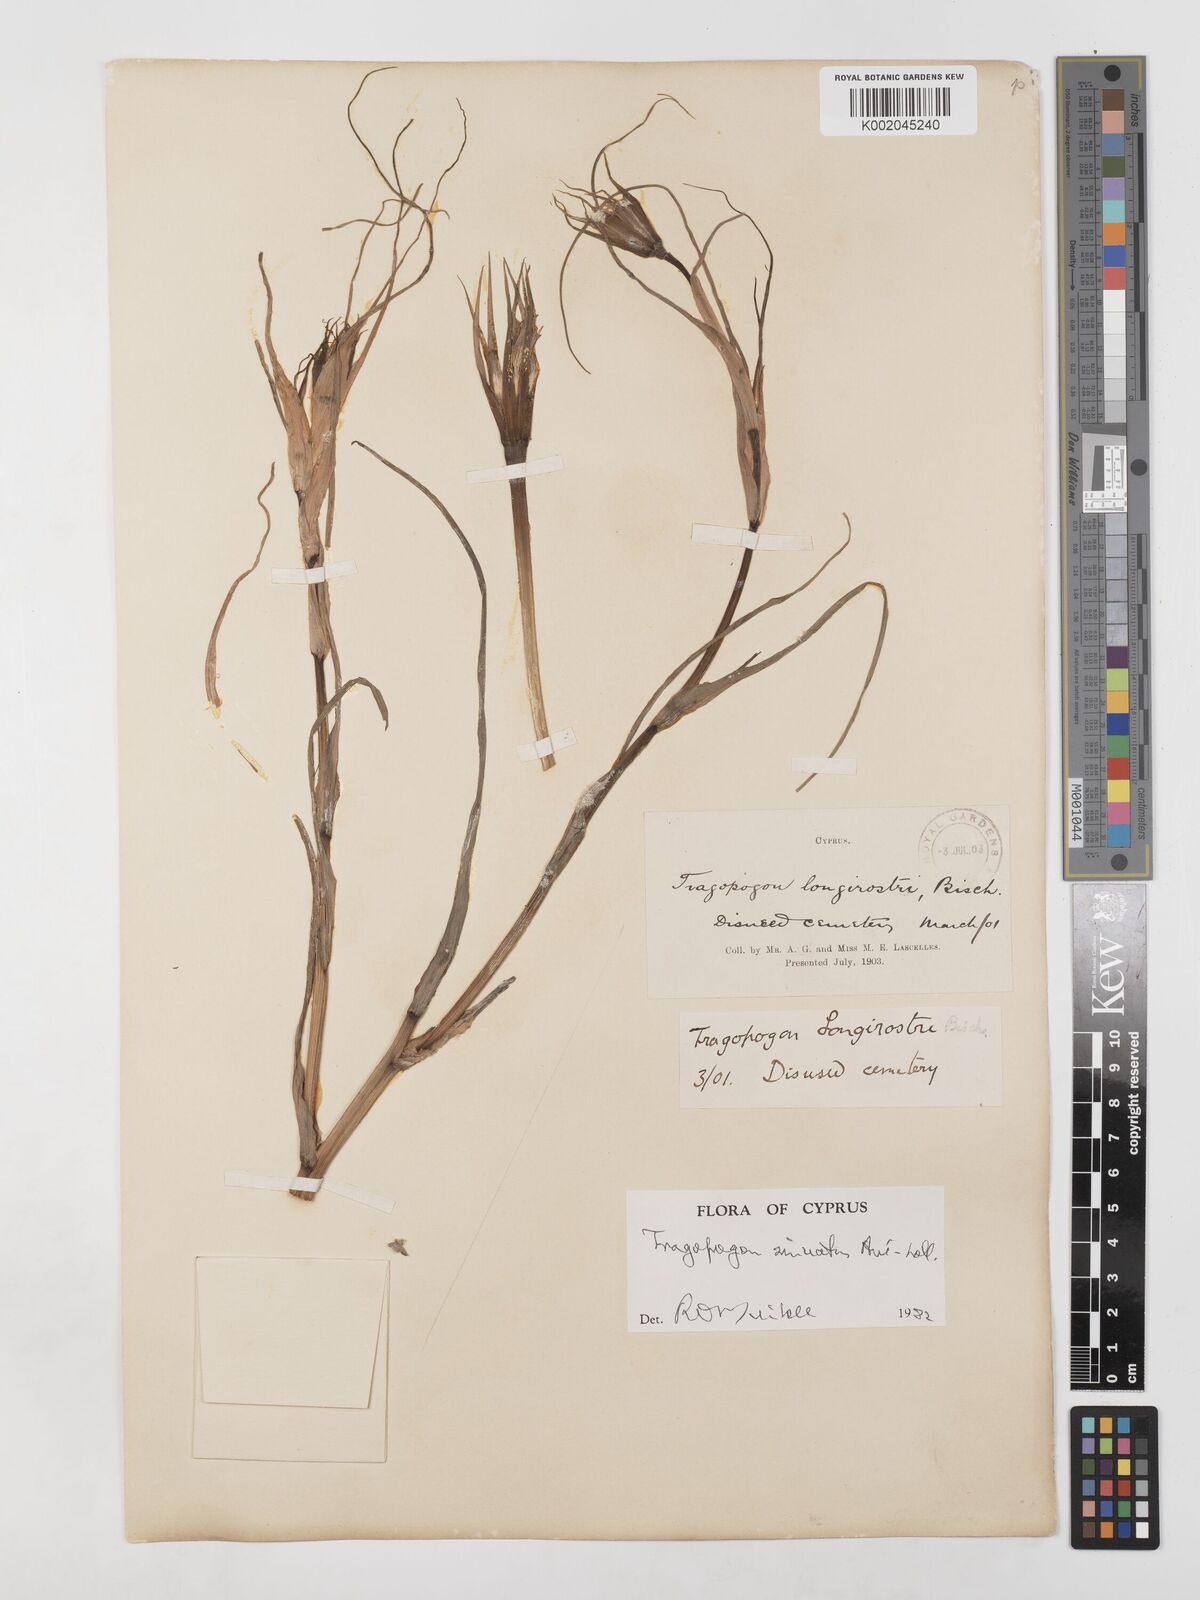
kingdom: Plantae
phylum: Tracheophyta
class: Magnoliopsida
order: Asterales
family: Asteraceae
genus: Tragopogon
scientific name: Tragopogon porrifolius
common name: Salsify
